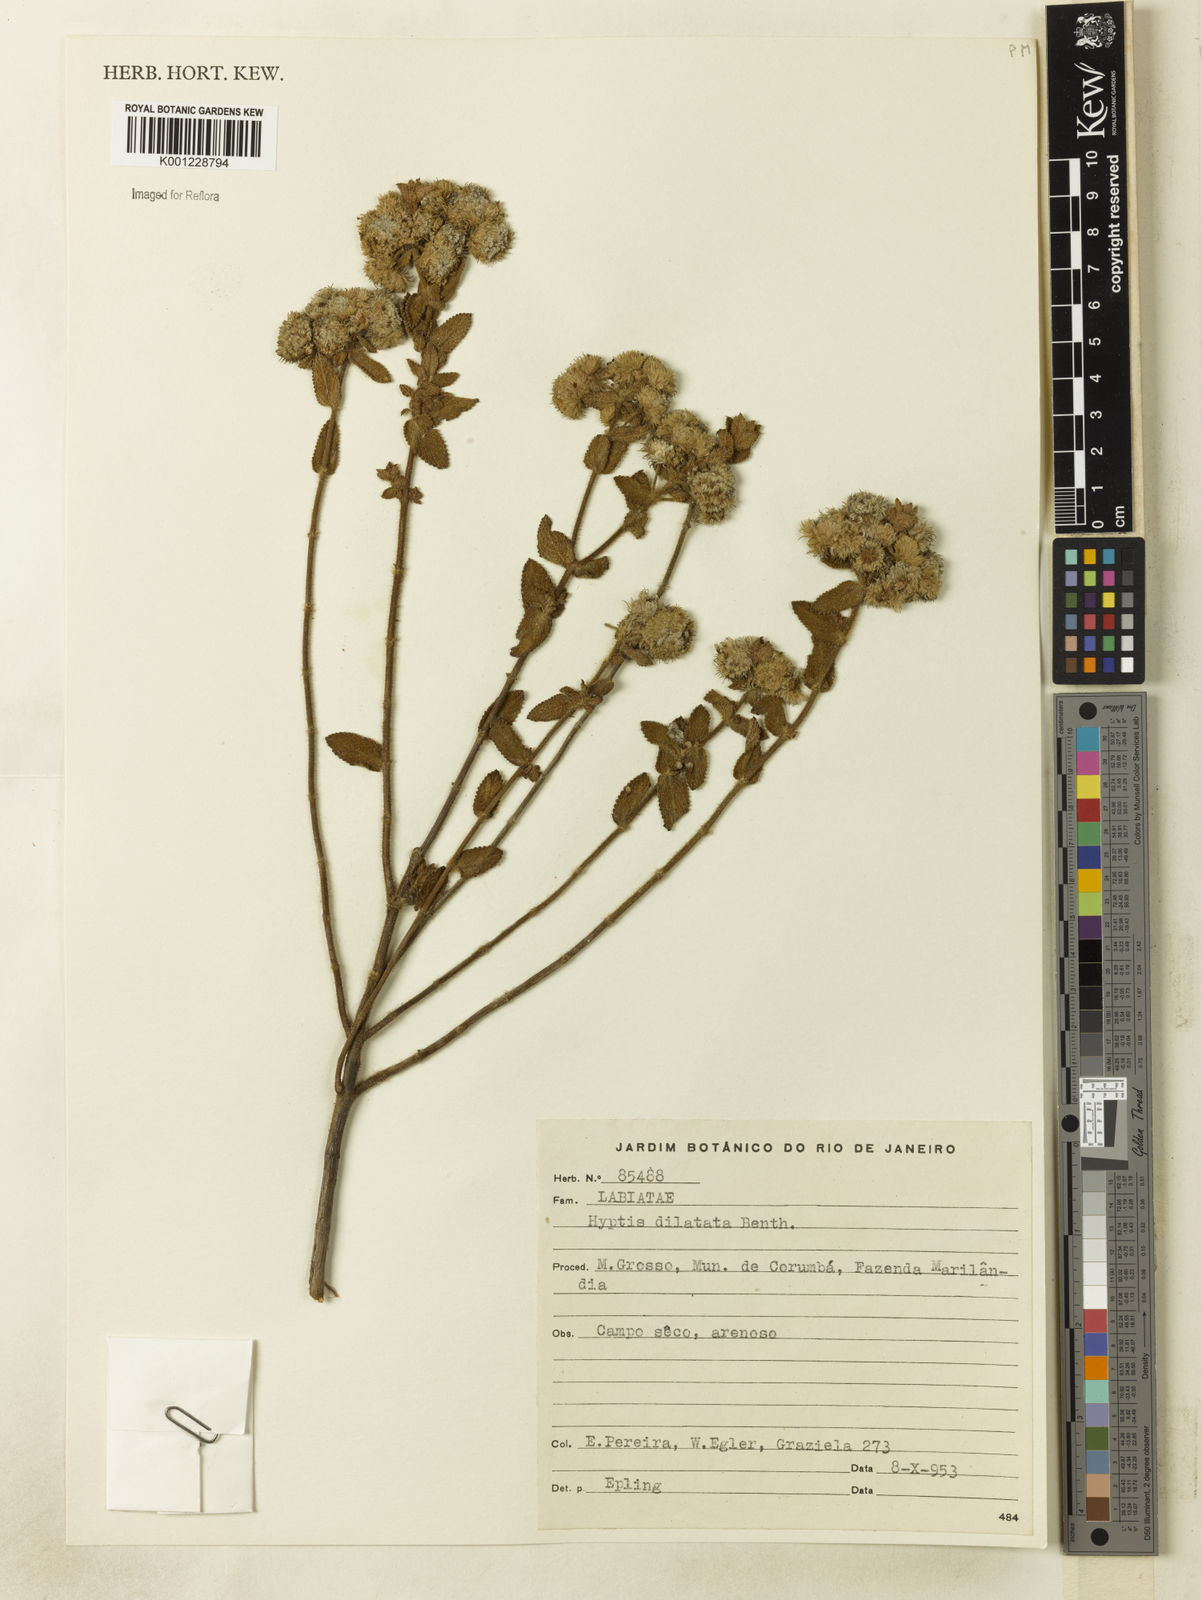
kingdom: Plantae
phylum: Tracheophyta
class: Magnoliopsida
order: Lamiales
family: Lamiaceae
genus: Hyptis
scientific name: Hyptis goyazensis
